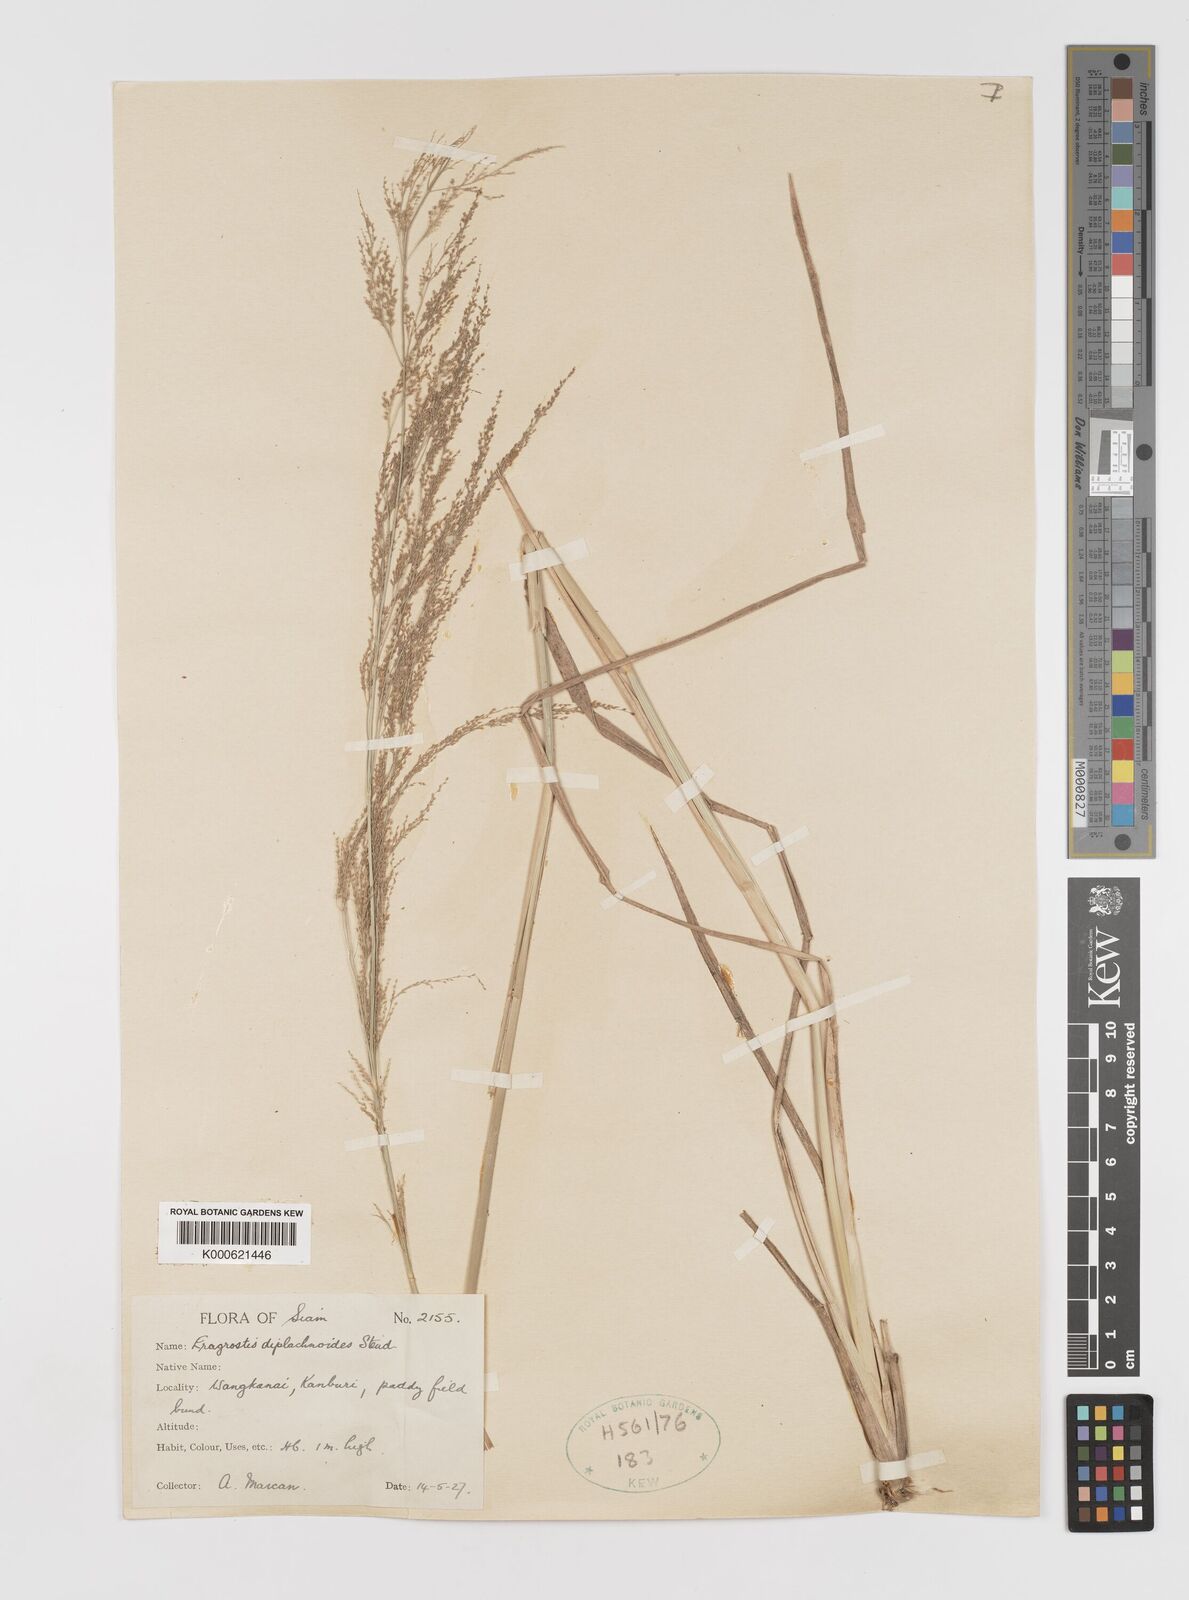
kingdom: Plantae
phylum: Tracheophyta
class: Liliopsida
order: Poales
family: Poaceae
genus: Eragrostis
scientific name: Eragrostis japonica
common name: Pond lovegrass
